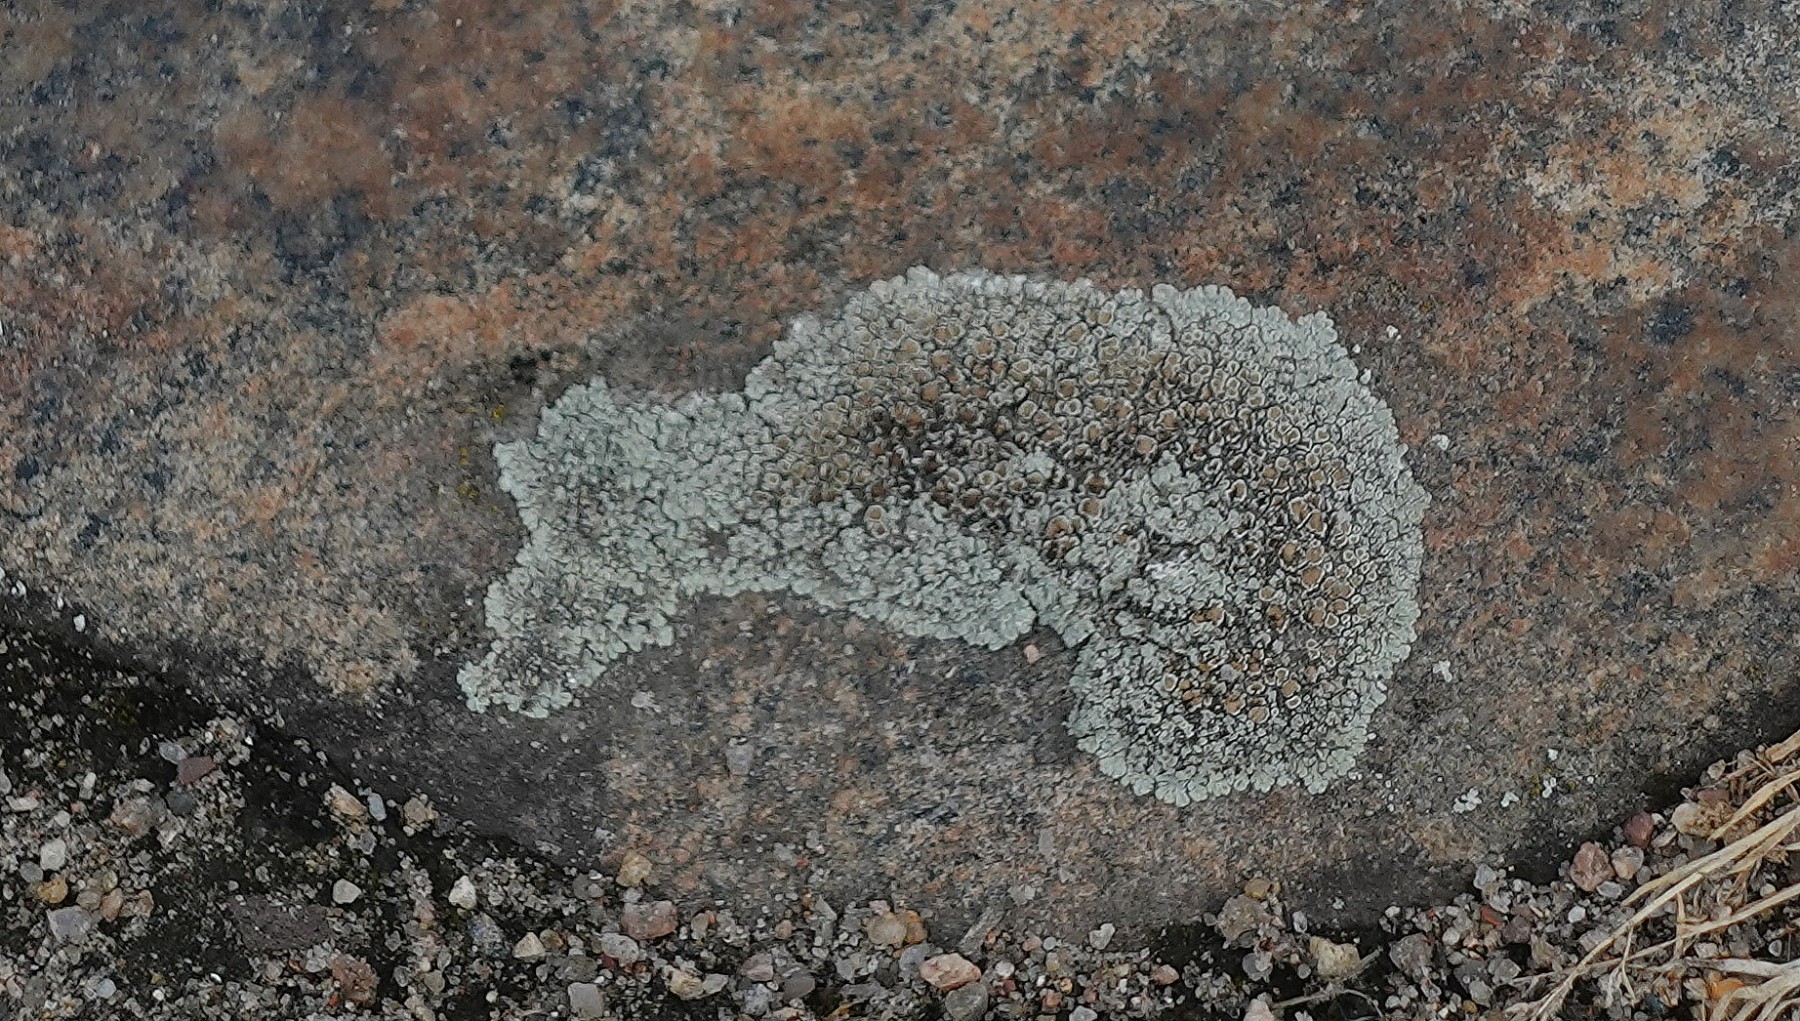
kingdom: Fungi
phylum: Ascomycota
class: Lecanoromycetes
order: Lecanorales
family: Lecanoraceae
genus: Protoparmeliopsis
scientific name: Protoparmeliopsis muralis
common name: randfliget kantskivelav
